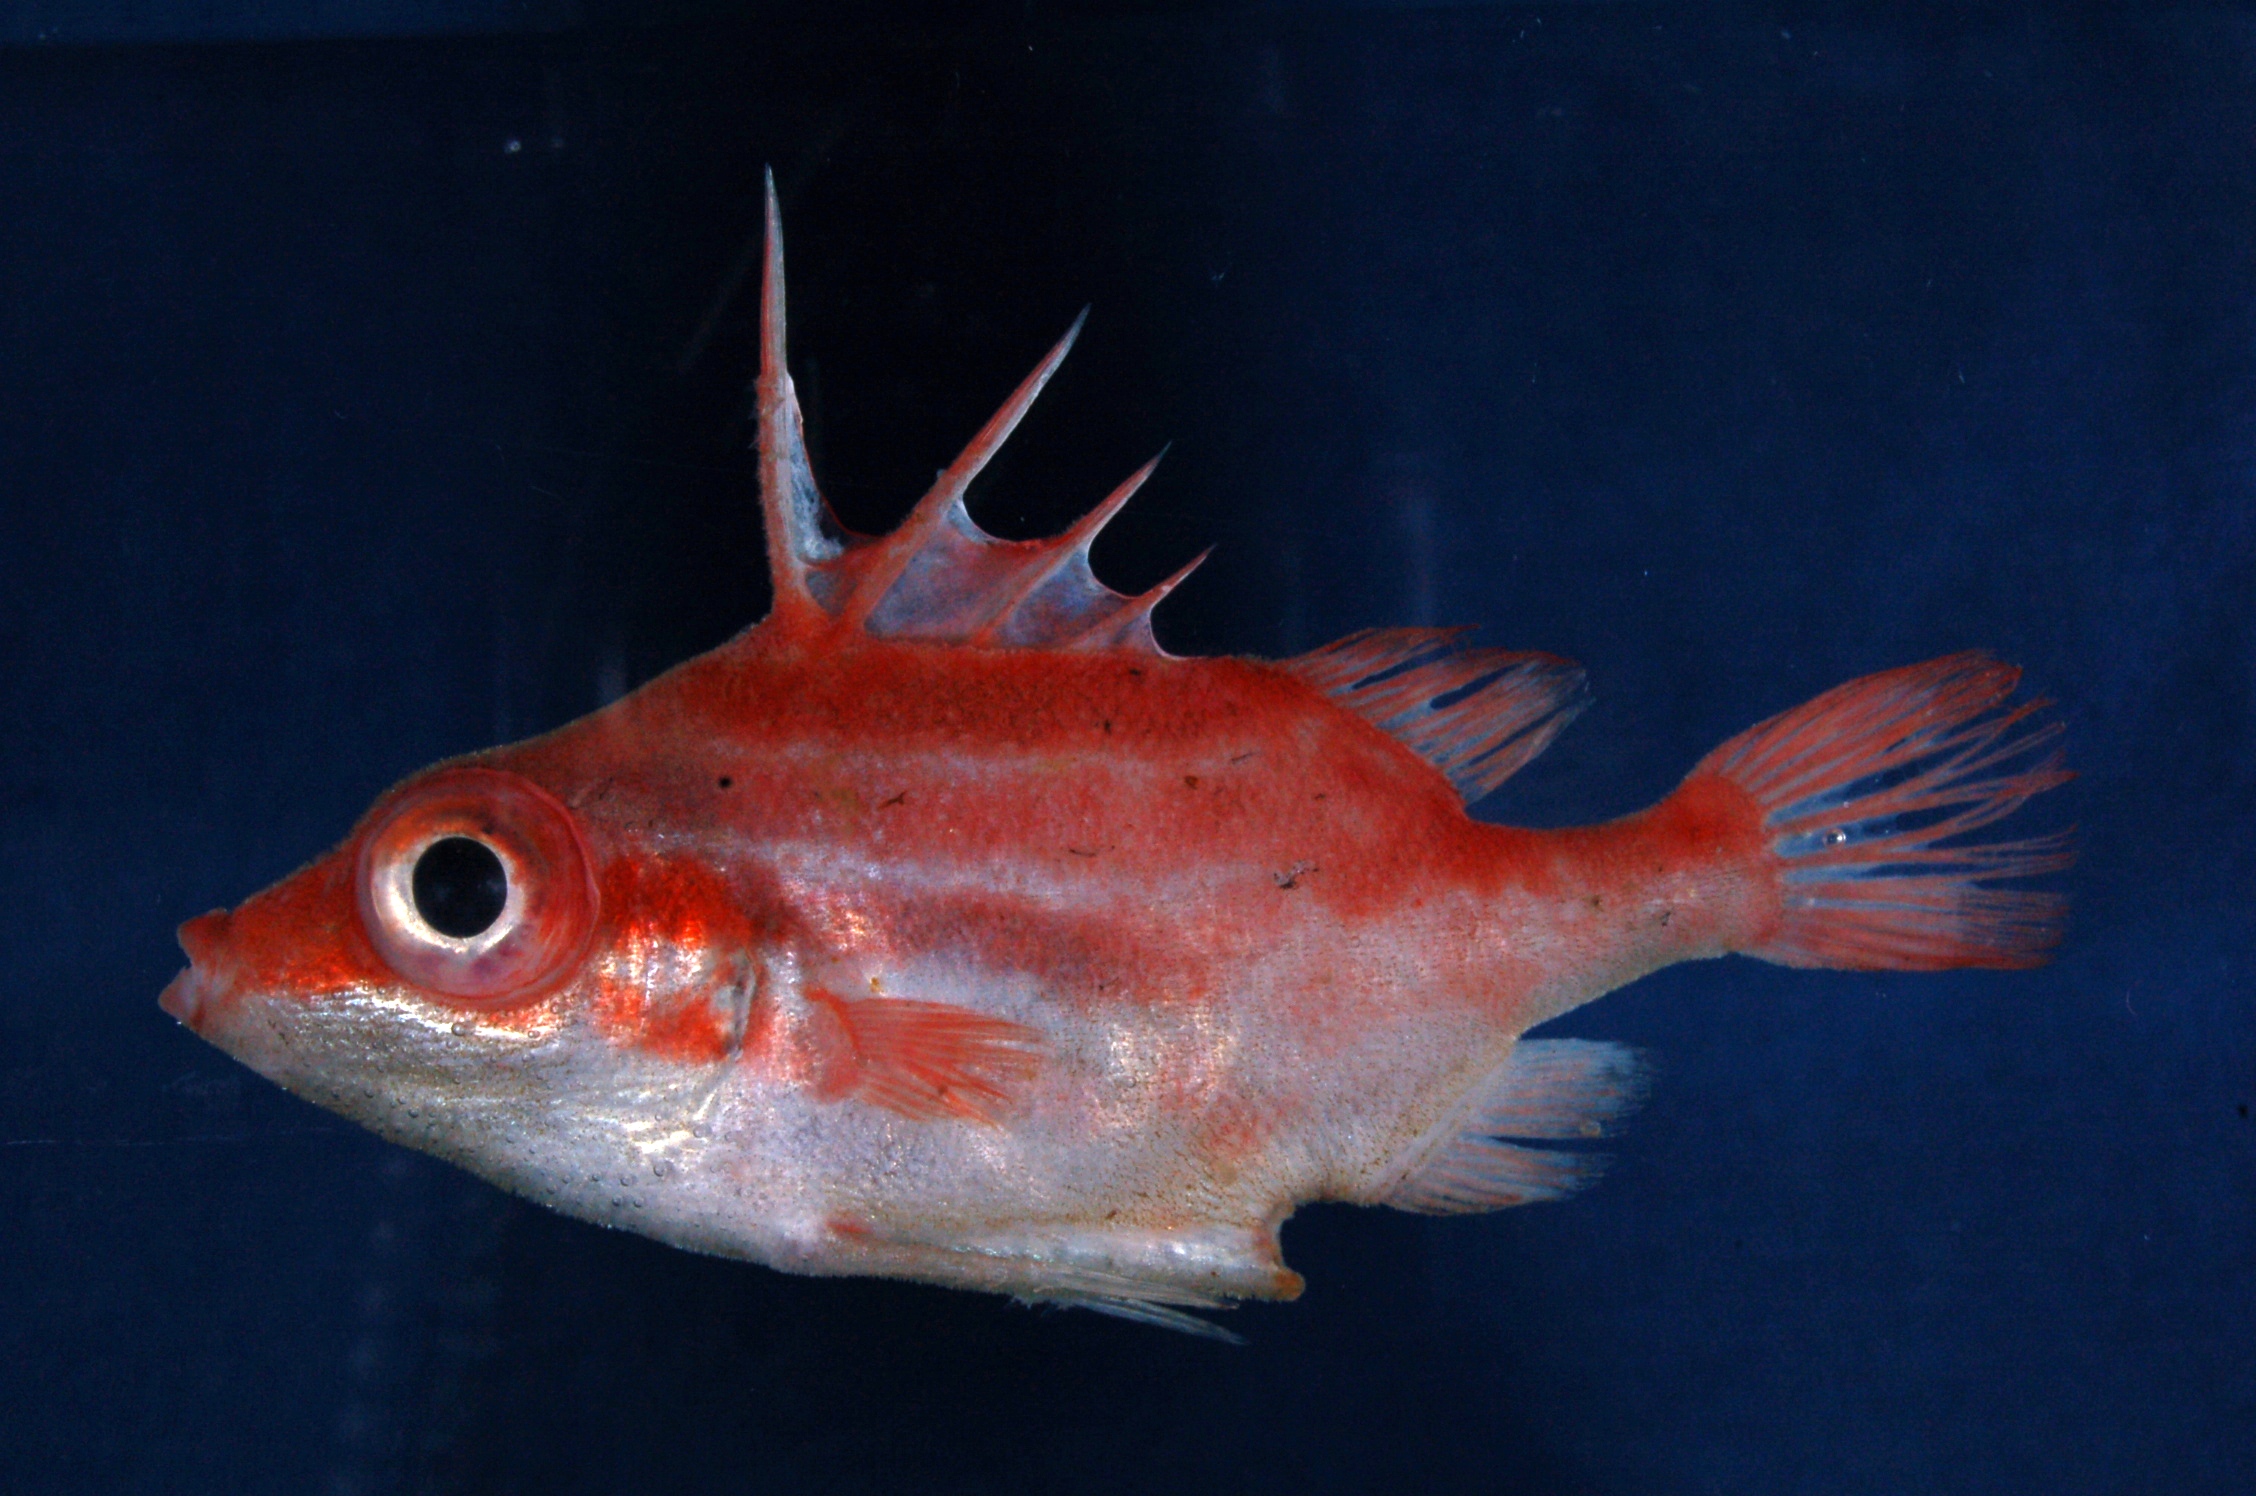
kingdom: Animalia
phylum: Chordata
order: Tetraodontiformes
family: Triacanthodidae
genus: Paratriacanthodes
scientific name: Paratriacanthodes retrospinis
